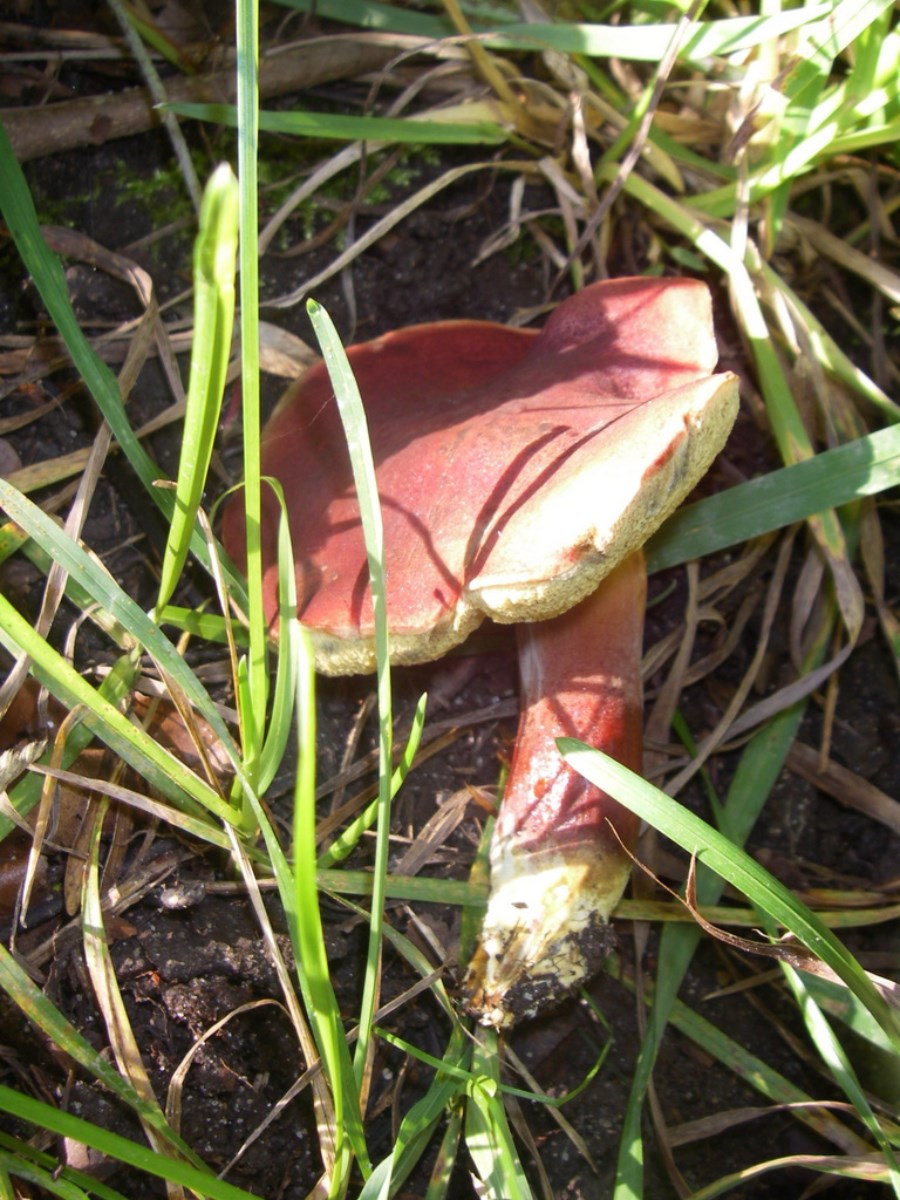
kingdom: Fungi
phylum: Basidiomycota
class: Agaricomycetes
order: Boletales
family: Boletaceae
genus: Hortiboletus
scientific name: Hortiboletus rubellus
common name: blodrød rørhat
